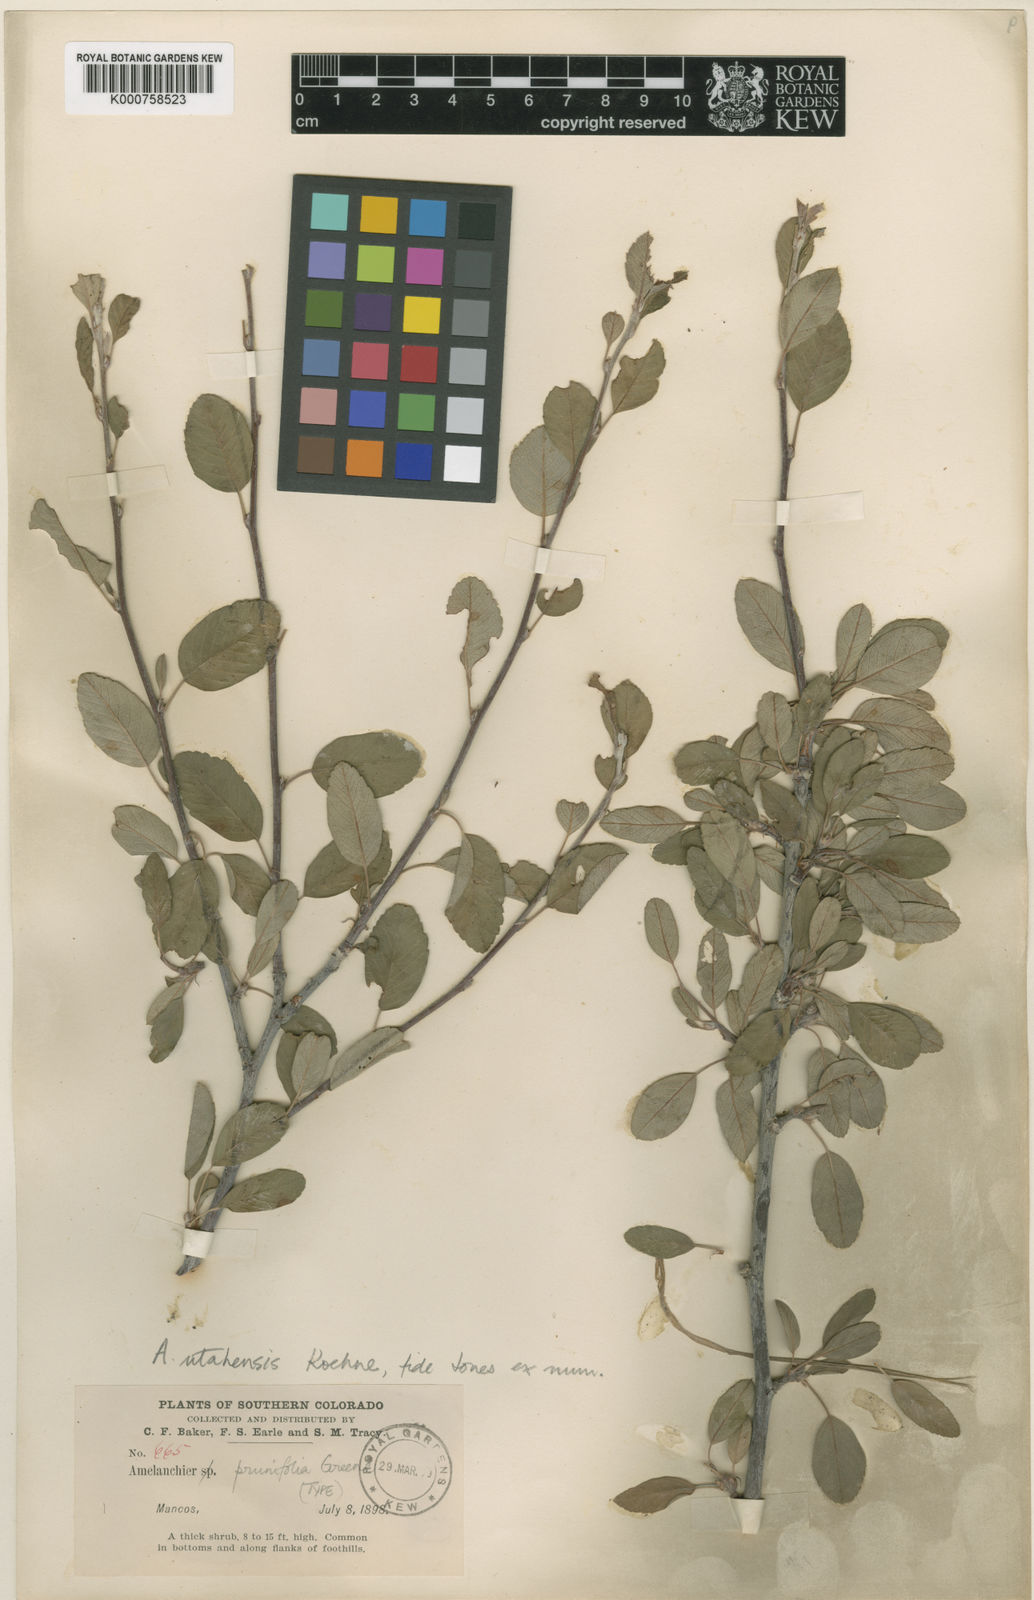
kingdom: Plantae
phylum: Tracheophyta
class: Magnoliopsida
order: Rosales
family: Rosaceae
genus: Amelanchier
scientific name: Amelanchier utahensis
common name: Utah serviceberry
